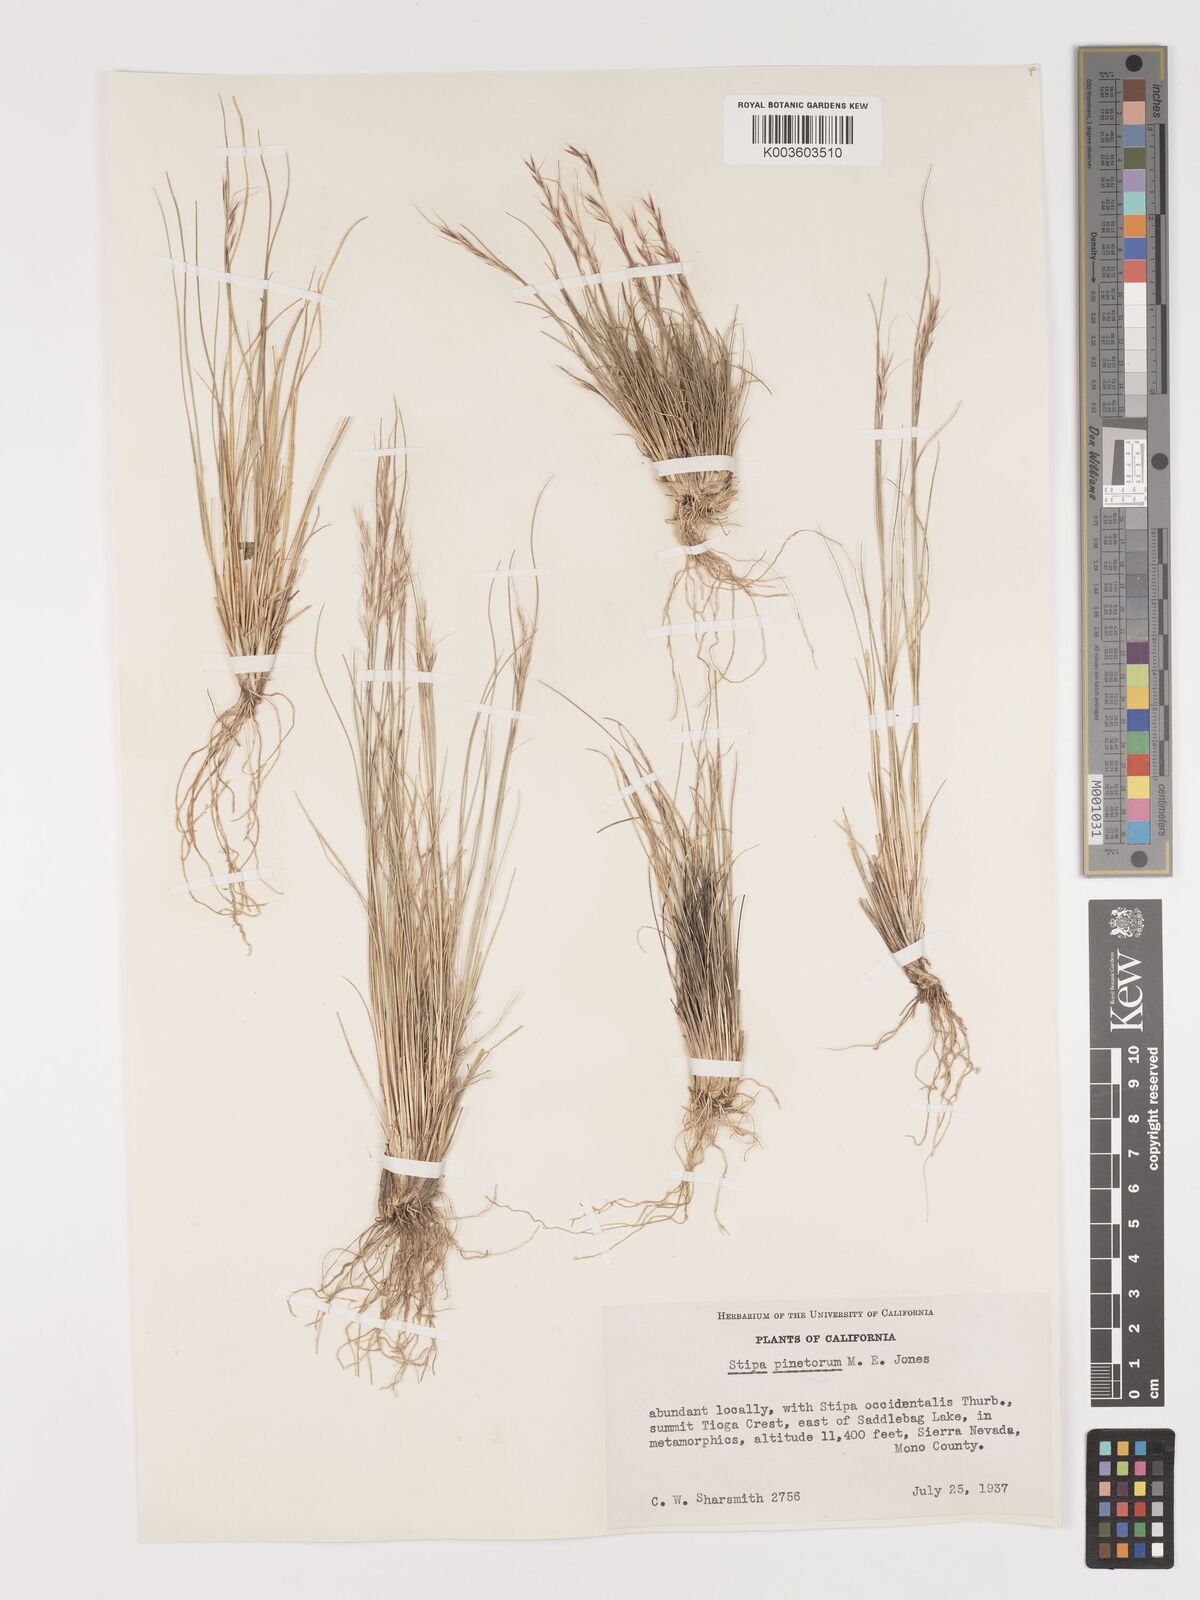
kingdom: Plantae
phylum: Tracheophyta
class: Liliopsida
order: Poales
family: Poaceae
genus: Eriocoma
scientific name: Eriocoma pinetorum
